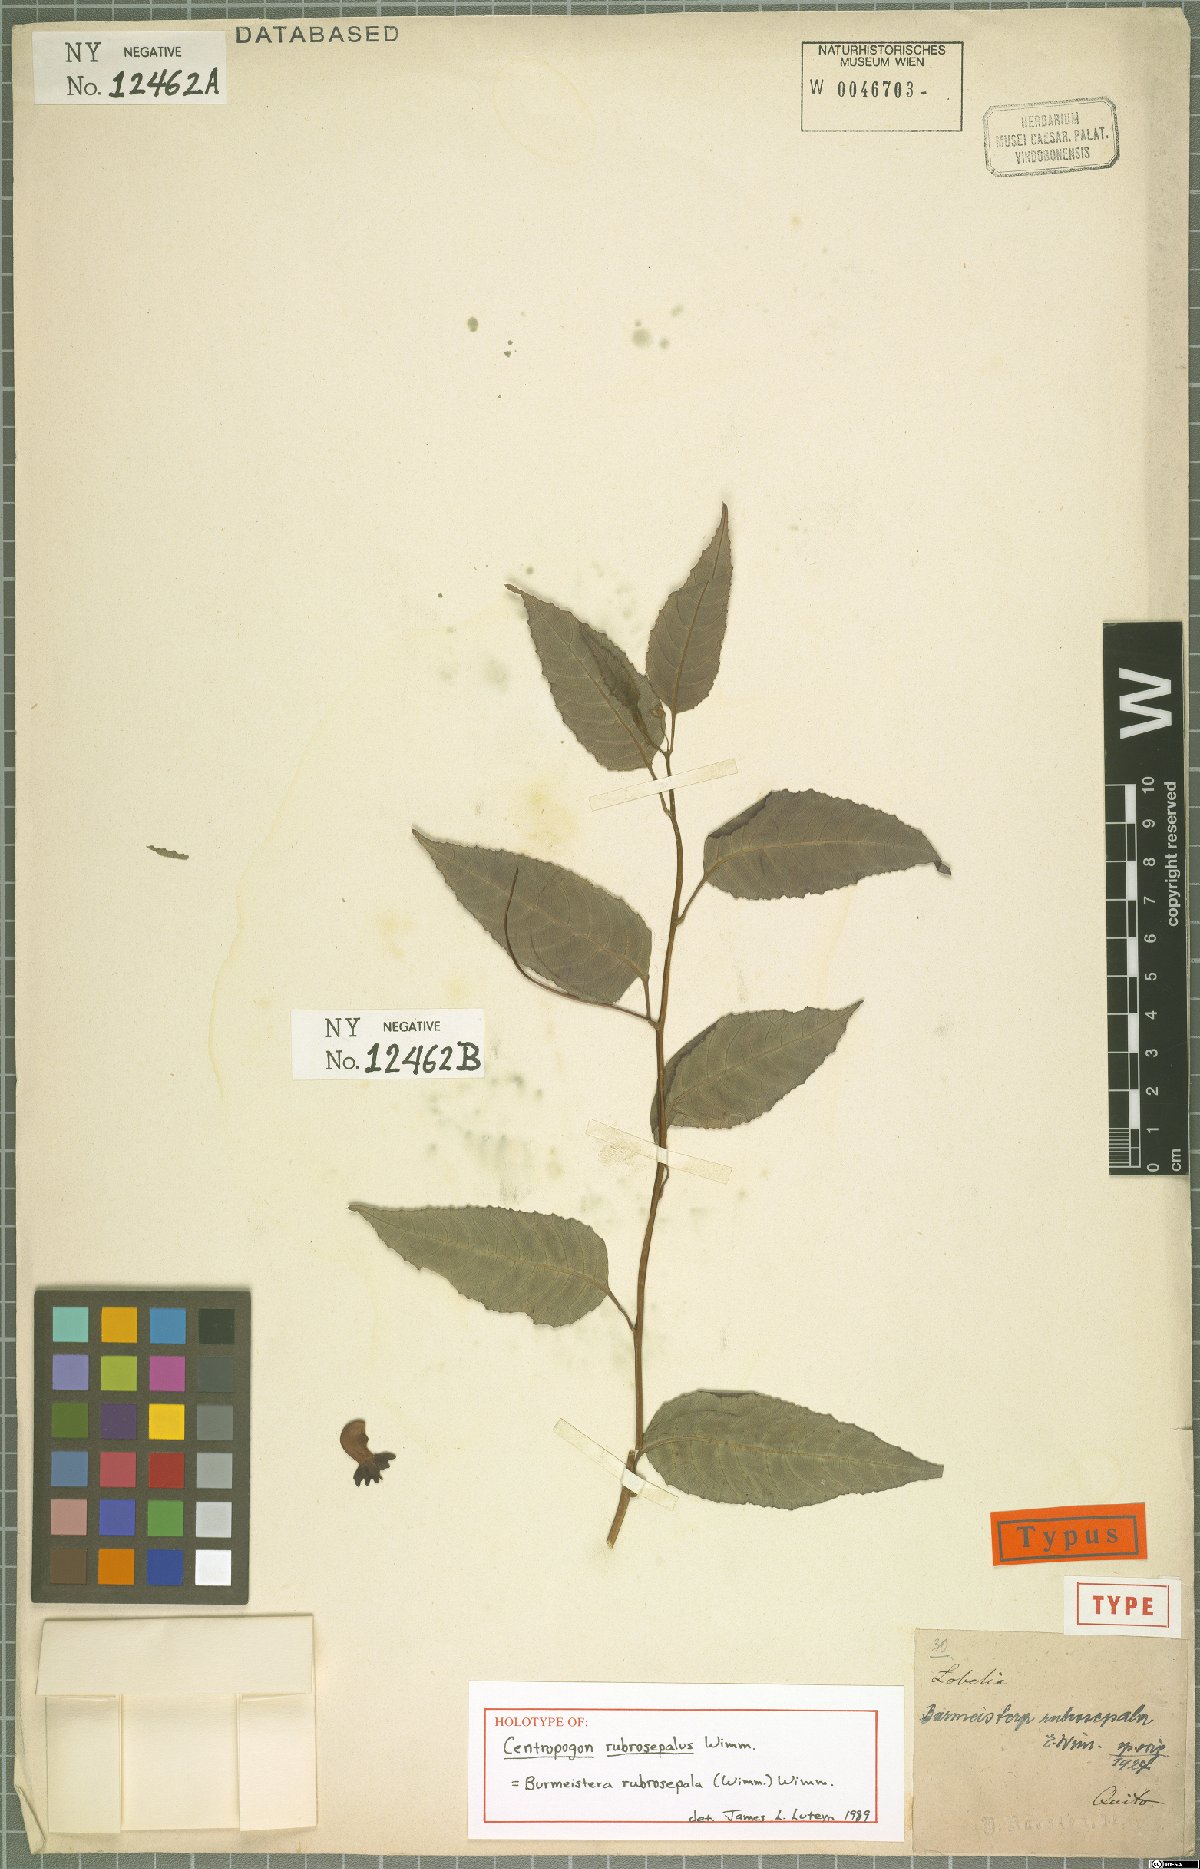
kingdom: Plantae
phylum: Tracheophyta
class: Magnoliopsida
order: Asterales
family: Campanulaceae
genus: Burmeistera
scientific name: Burmeistera rubrosepala
